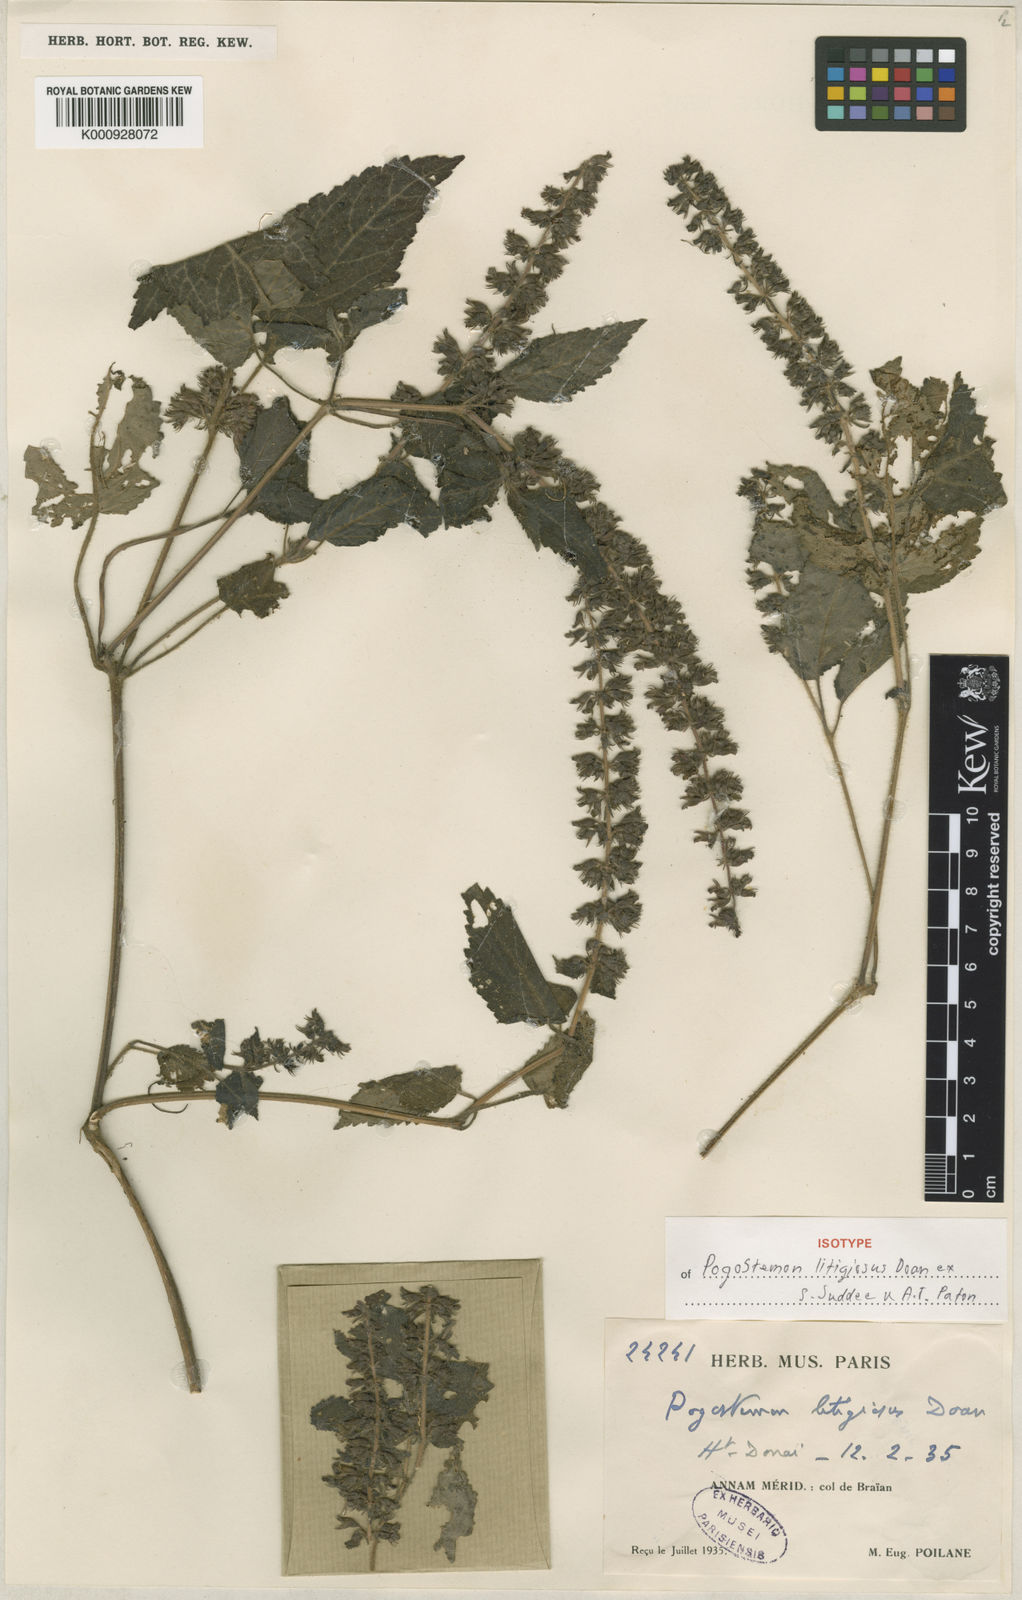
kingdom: Plantae
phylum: Tracheophyta
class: Magnoliopsida
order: Lamiales
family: Lamiaceae
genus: Pogostemon
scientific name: Pogostemon litigiosus
